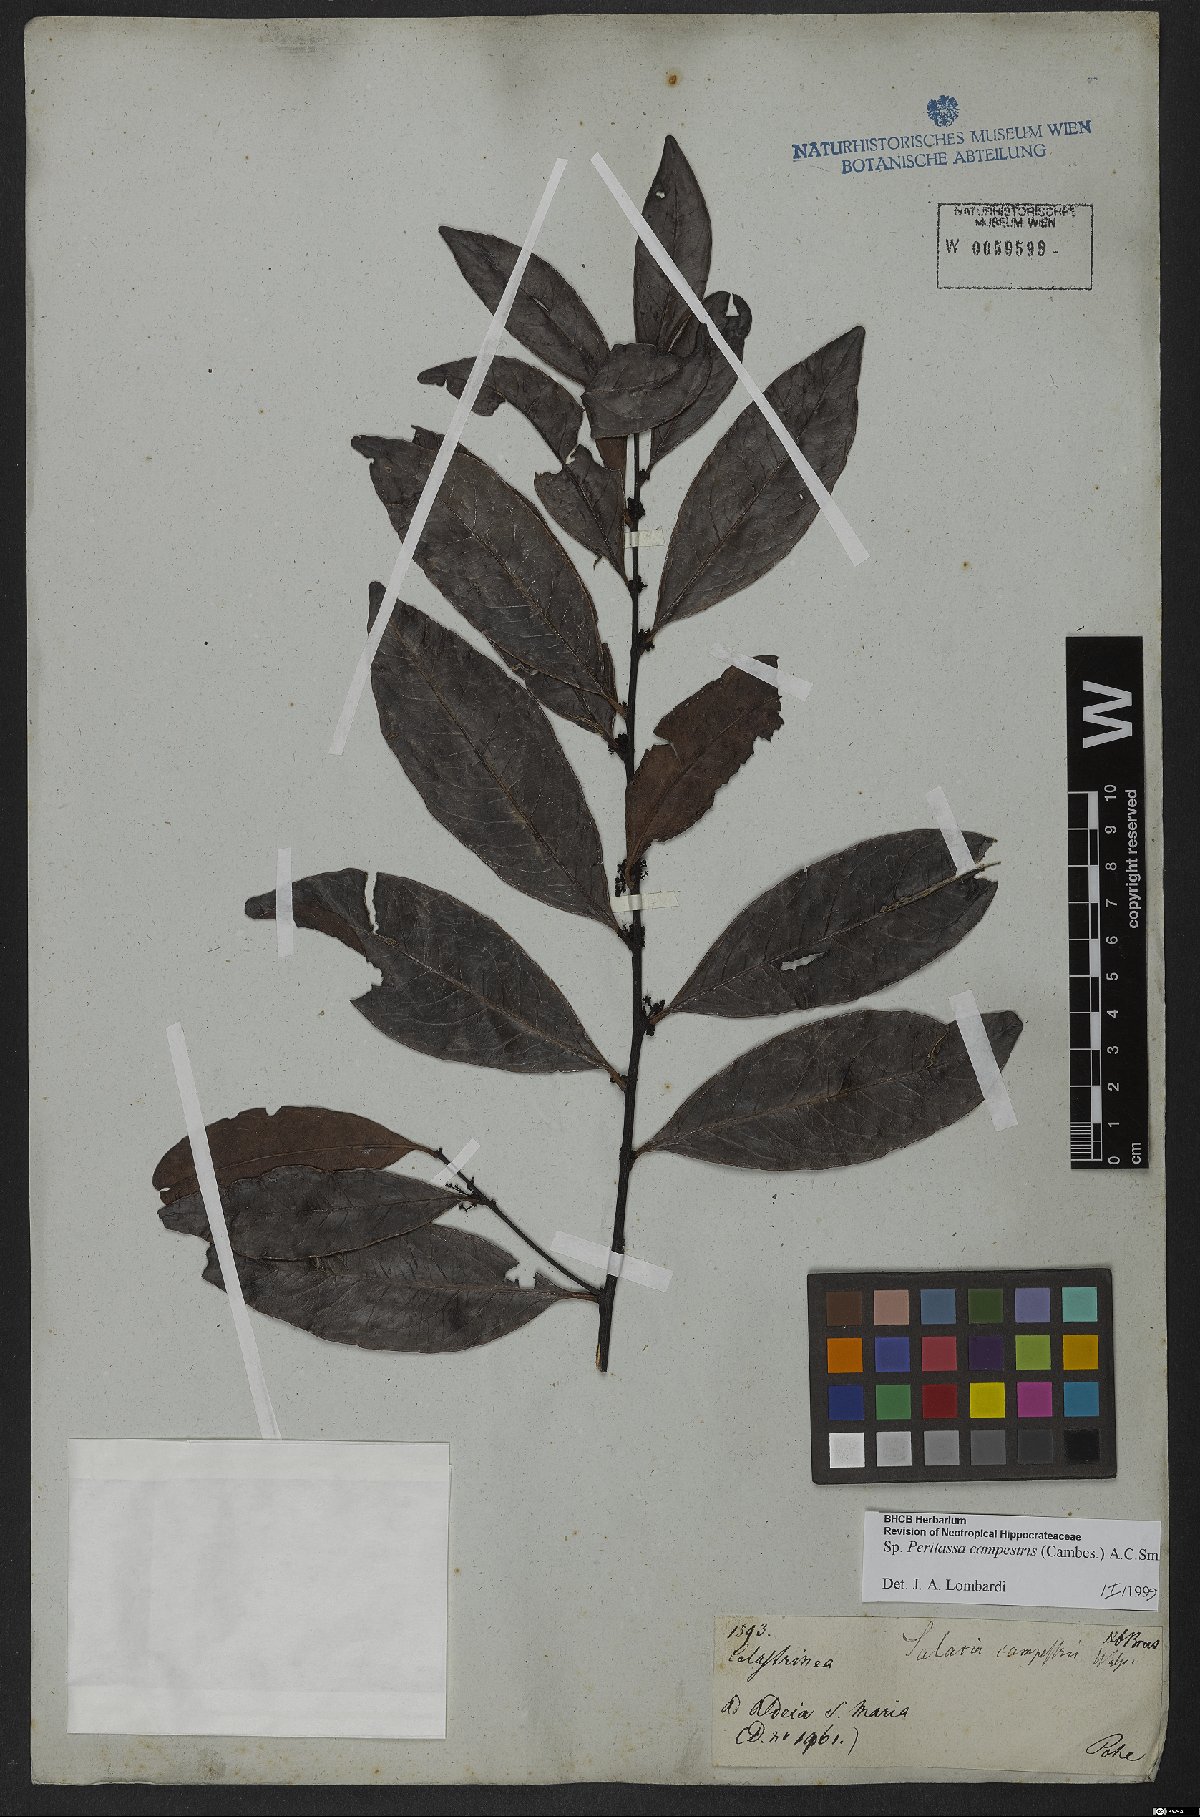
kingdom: Plantae
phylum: Tracheophyta
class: Magnoliopsida
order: Celastrales
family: Celastraceae
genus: Peritassa
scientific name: Peritassa campestris
